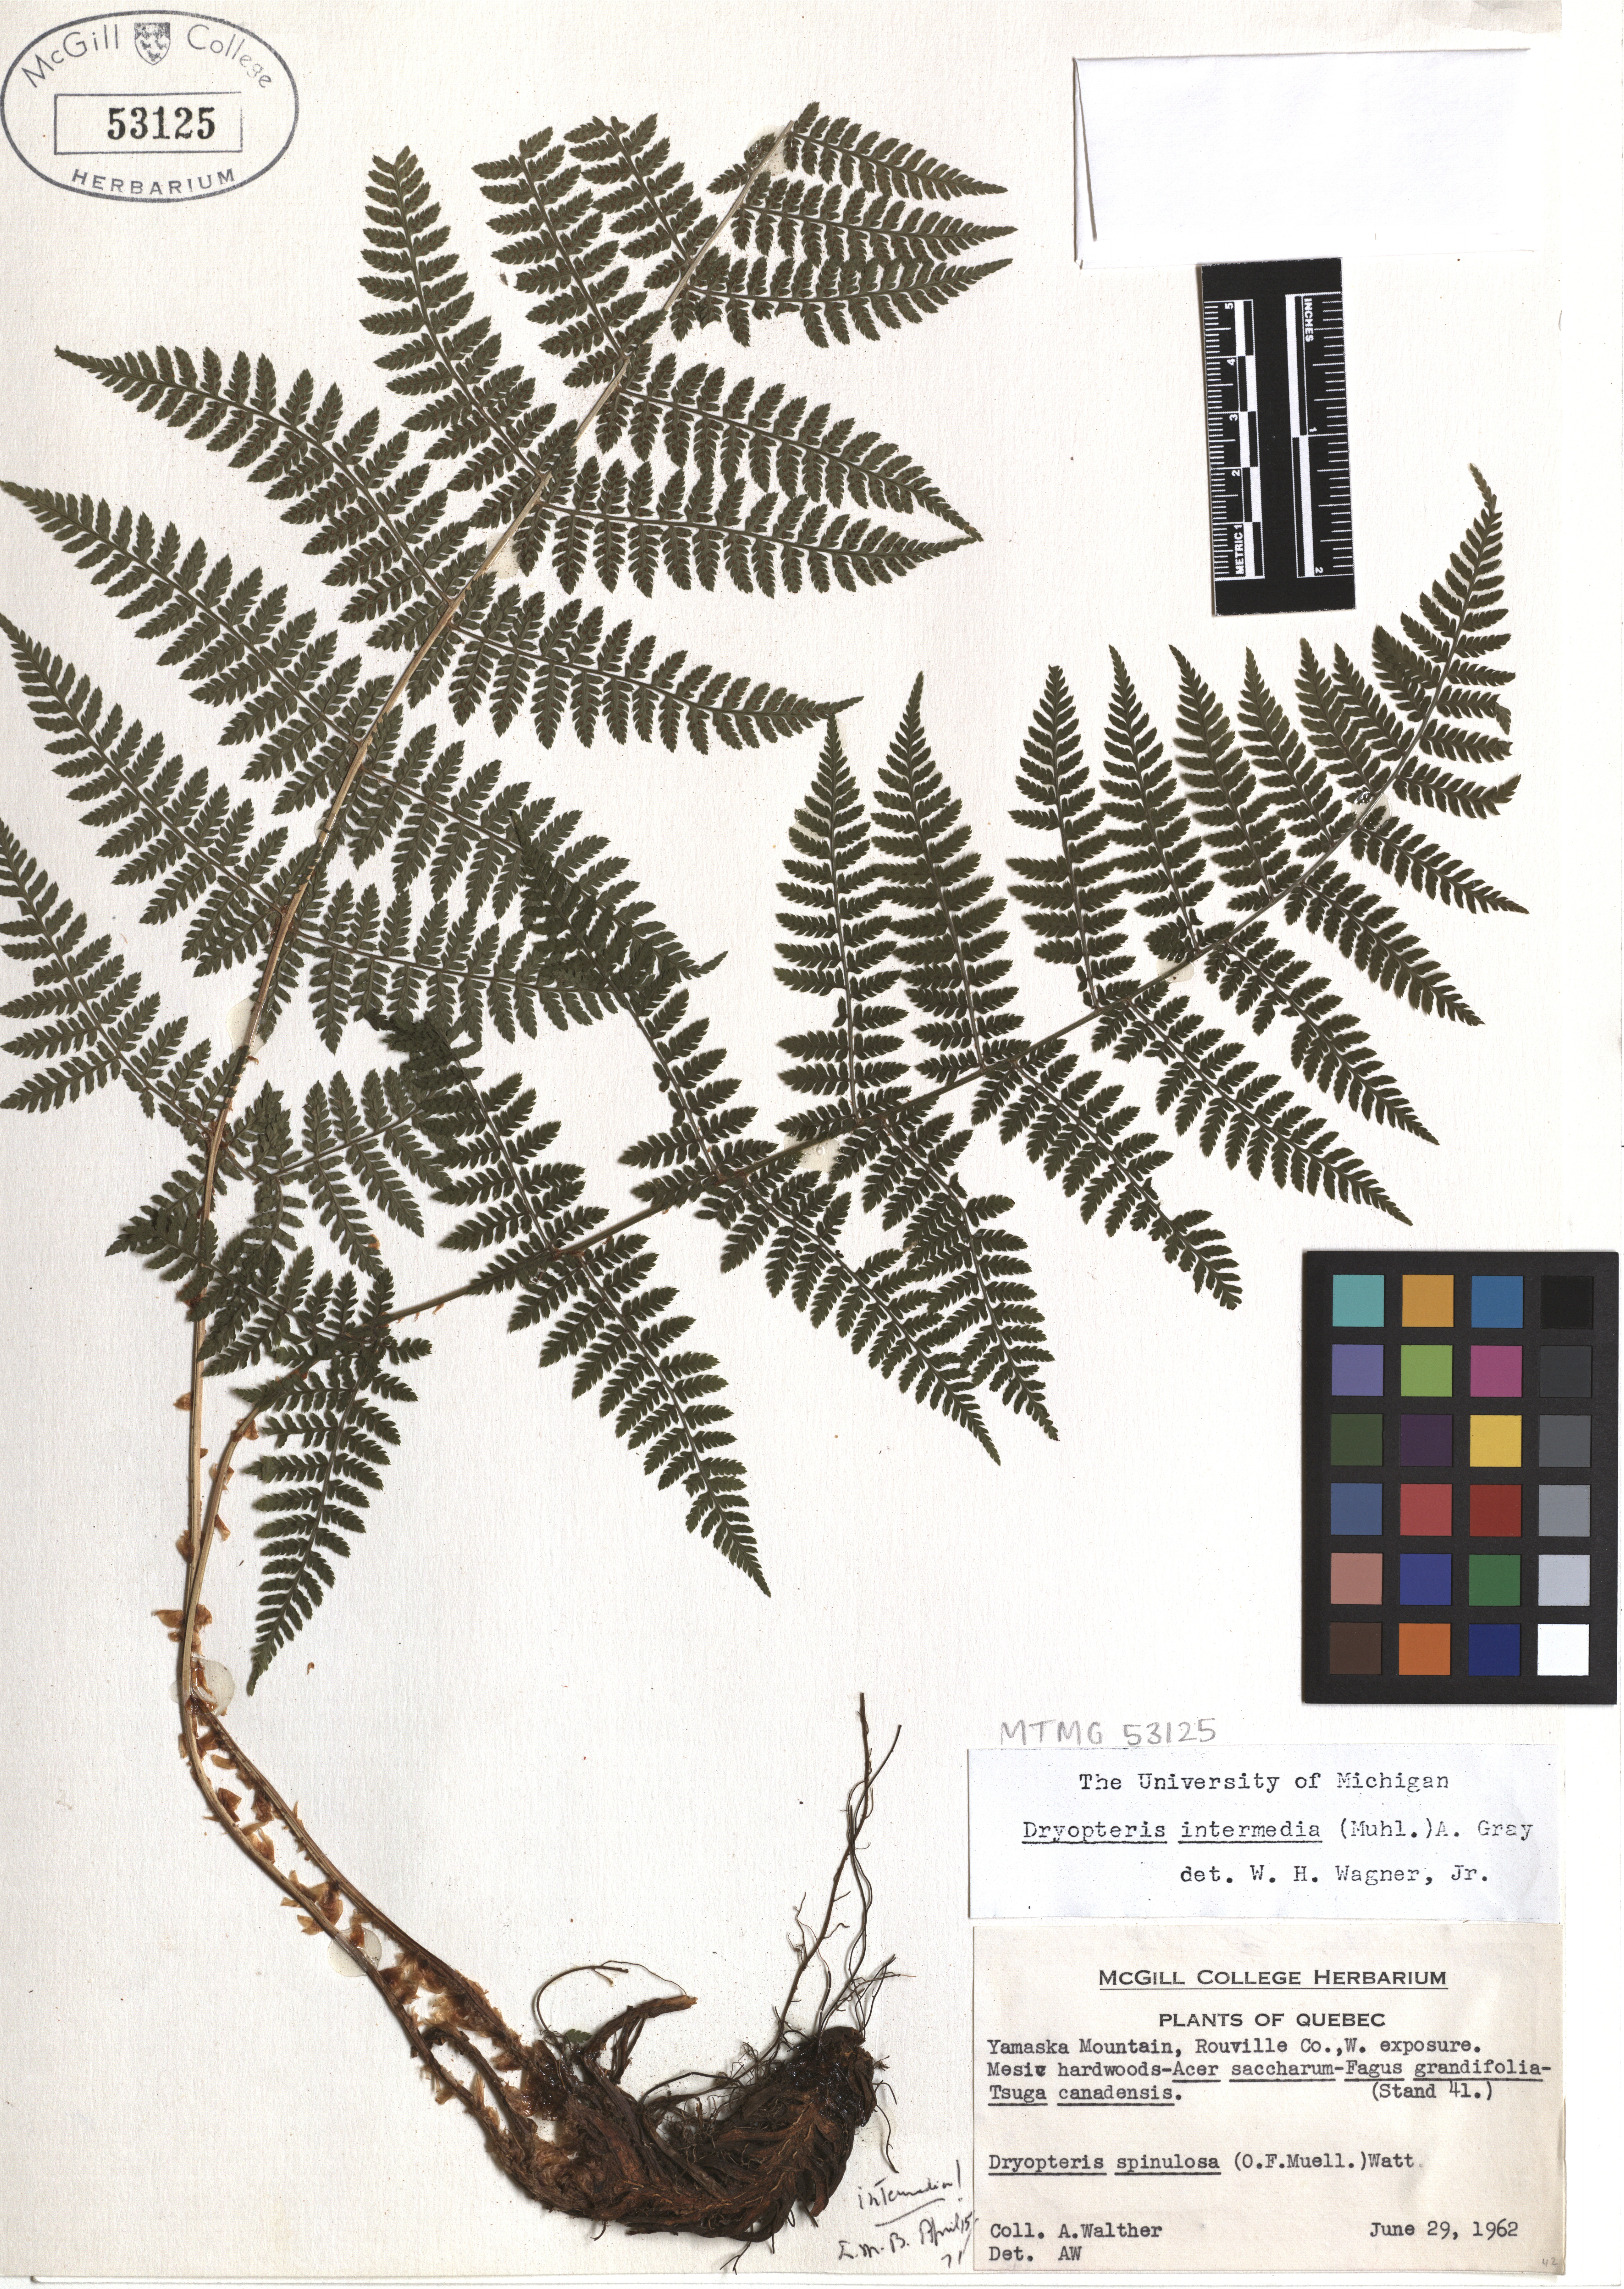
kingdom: Plantae
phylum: Tracheophyta
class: Polypodiopsida
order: Polypodiales
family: Dryopteridaceae
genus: Dryopteris
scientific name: Dryopteris intermedia
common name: Evergreen wood fern
